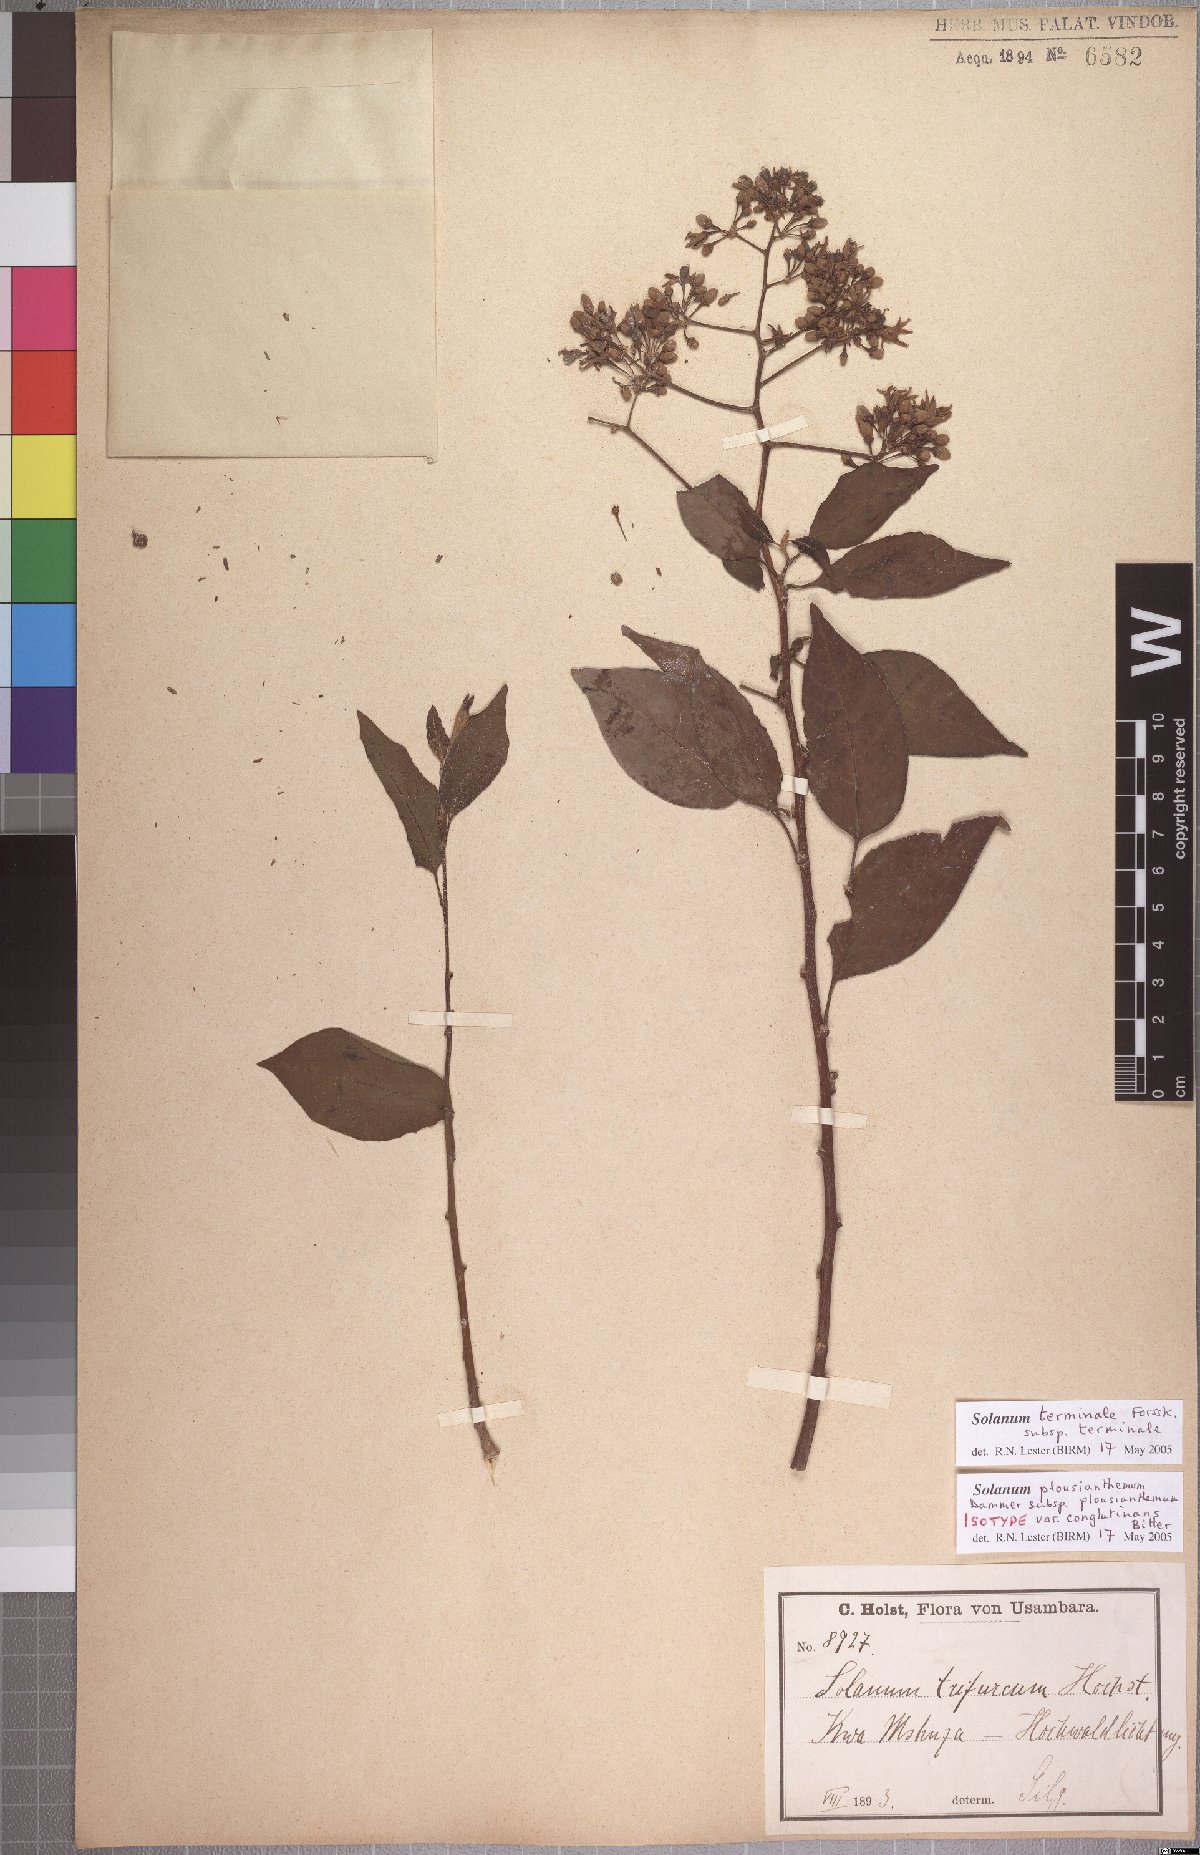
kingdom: Plantae
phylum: Tracheophyta
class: Magnoliopsida
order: Solanales
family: Solanaceae
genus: Solanum
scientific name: Solanum terminale
